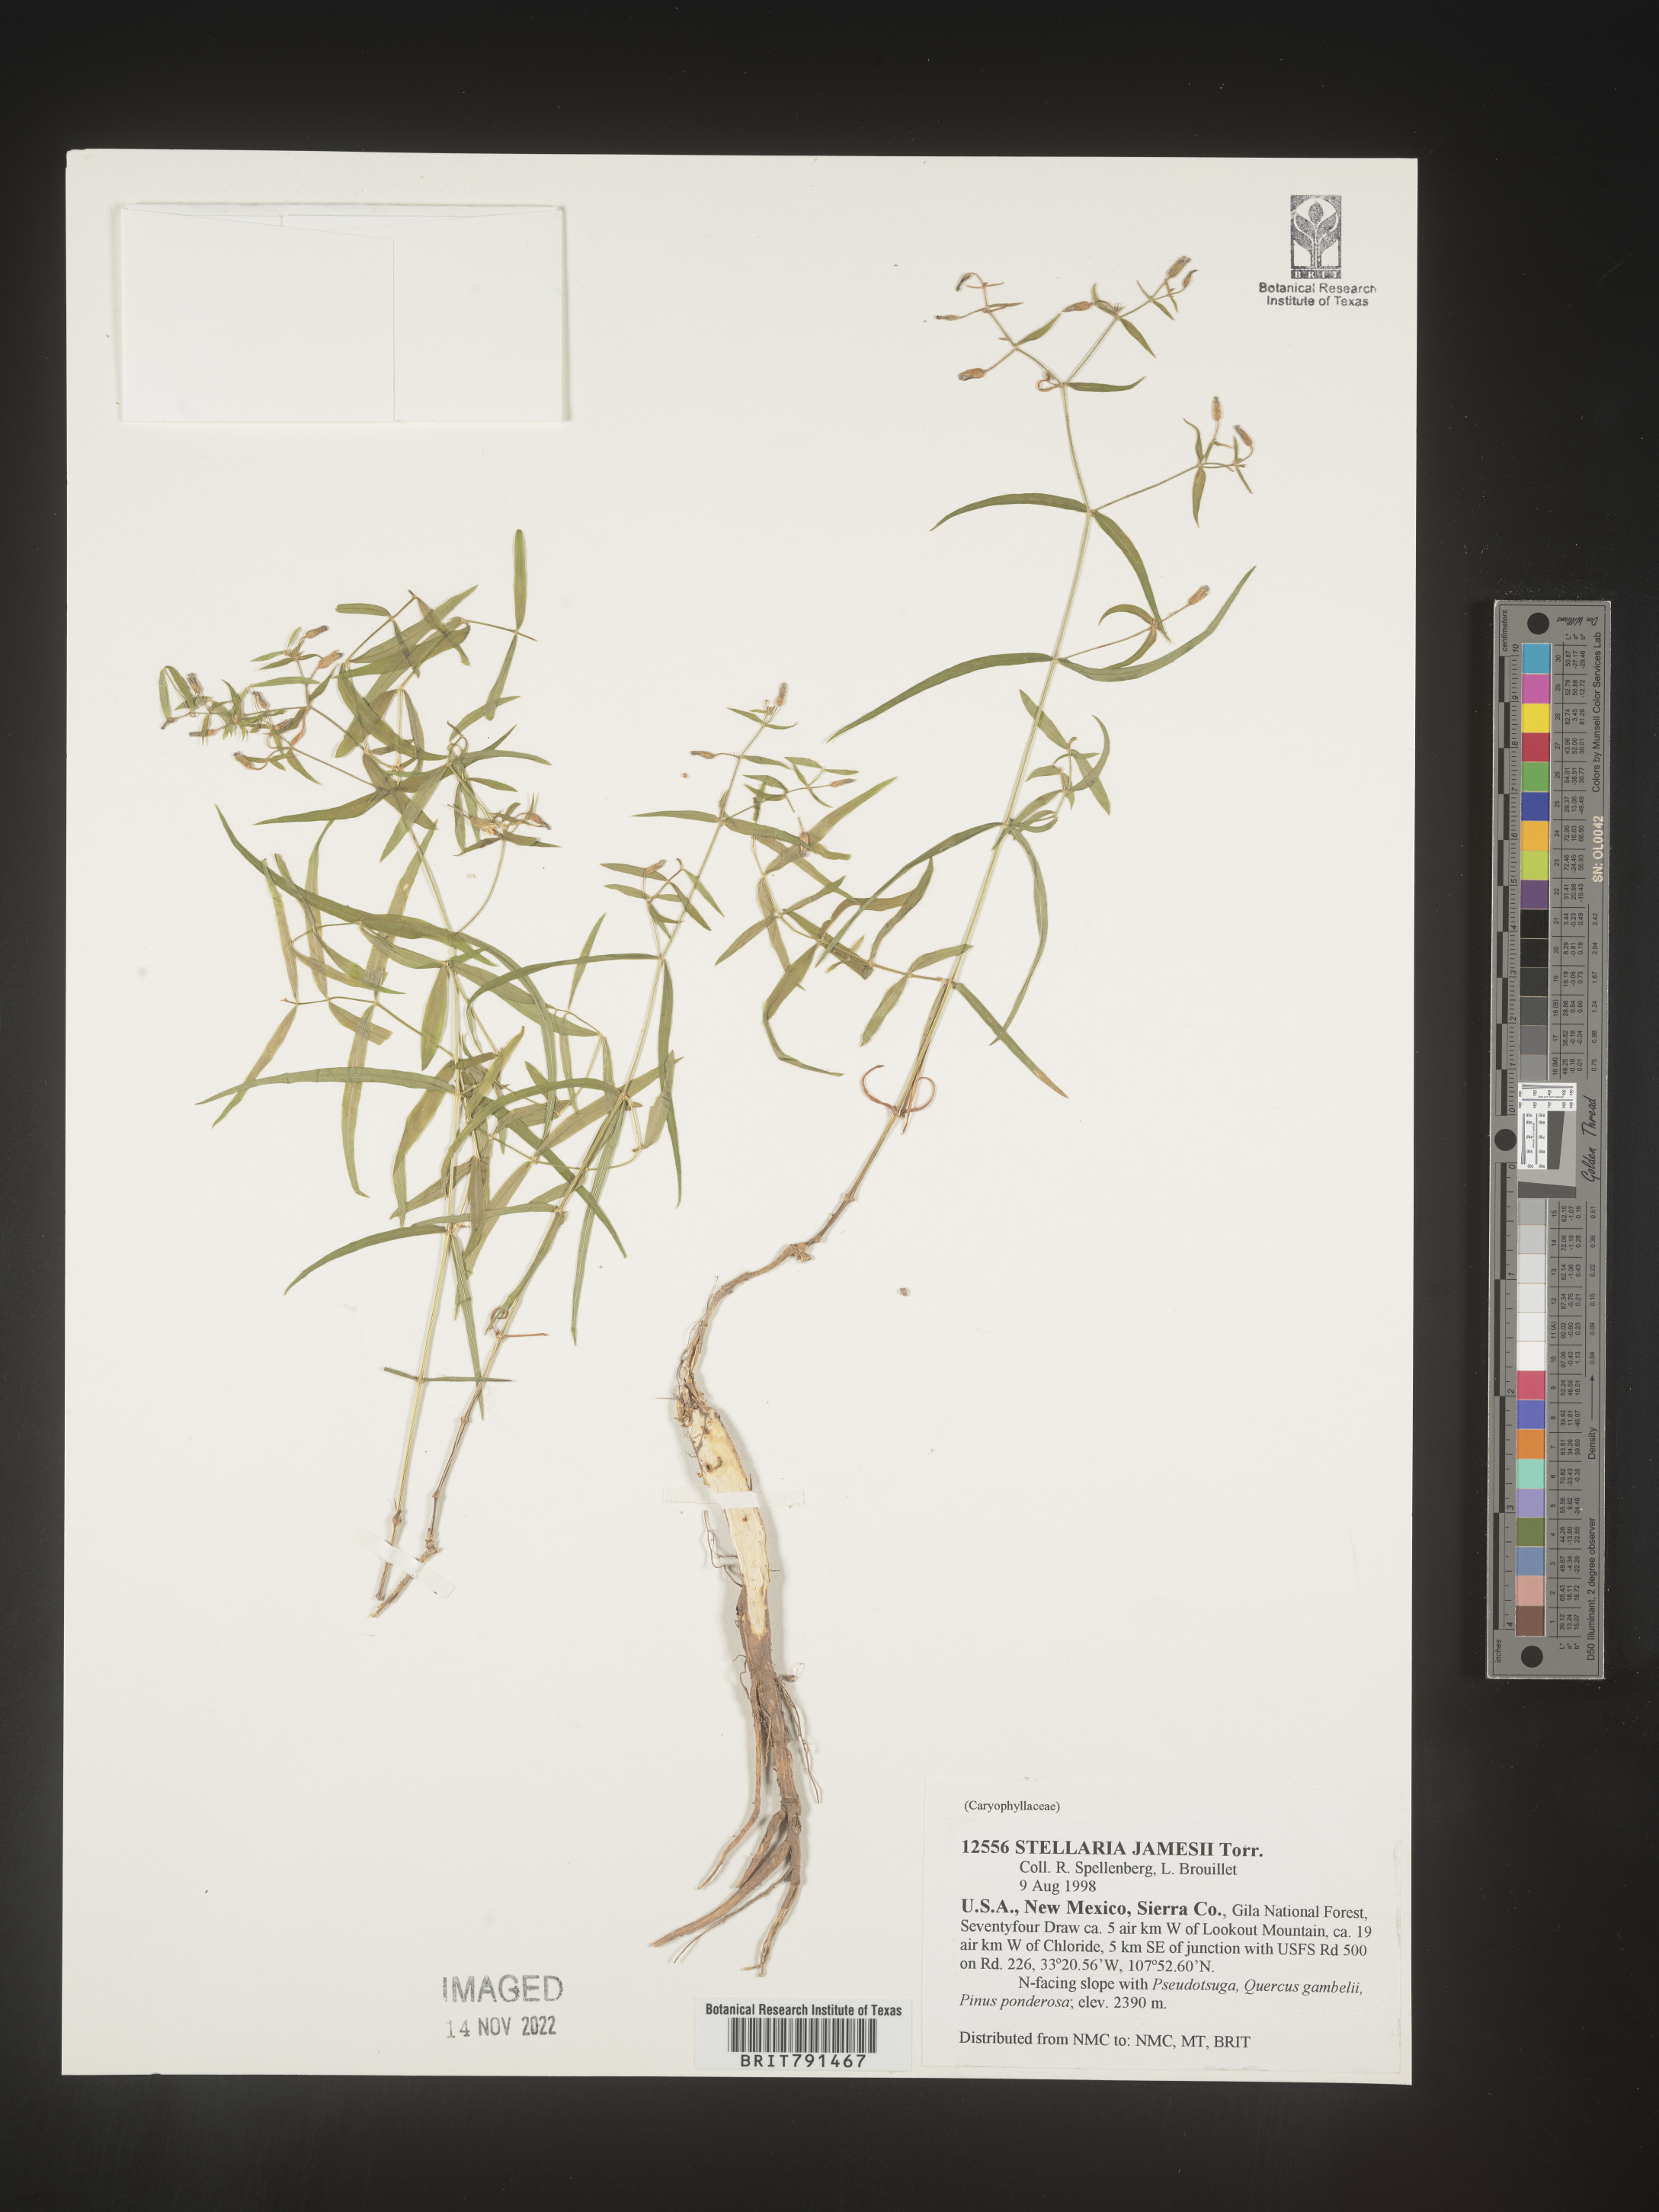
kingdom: Plantae
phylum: Tracheophyta
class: Magnoliopsida
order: Caryophyllales
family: Caryophyllaceae
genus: Pseudostellaria
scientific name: Pseudostellaria
